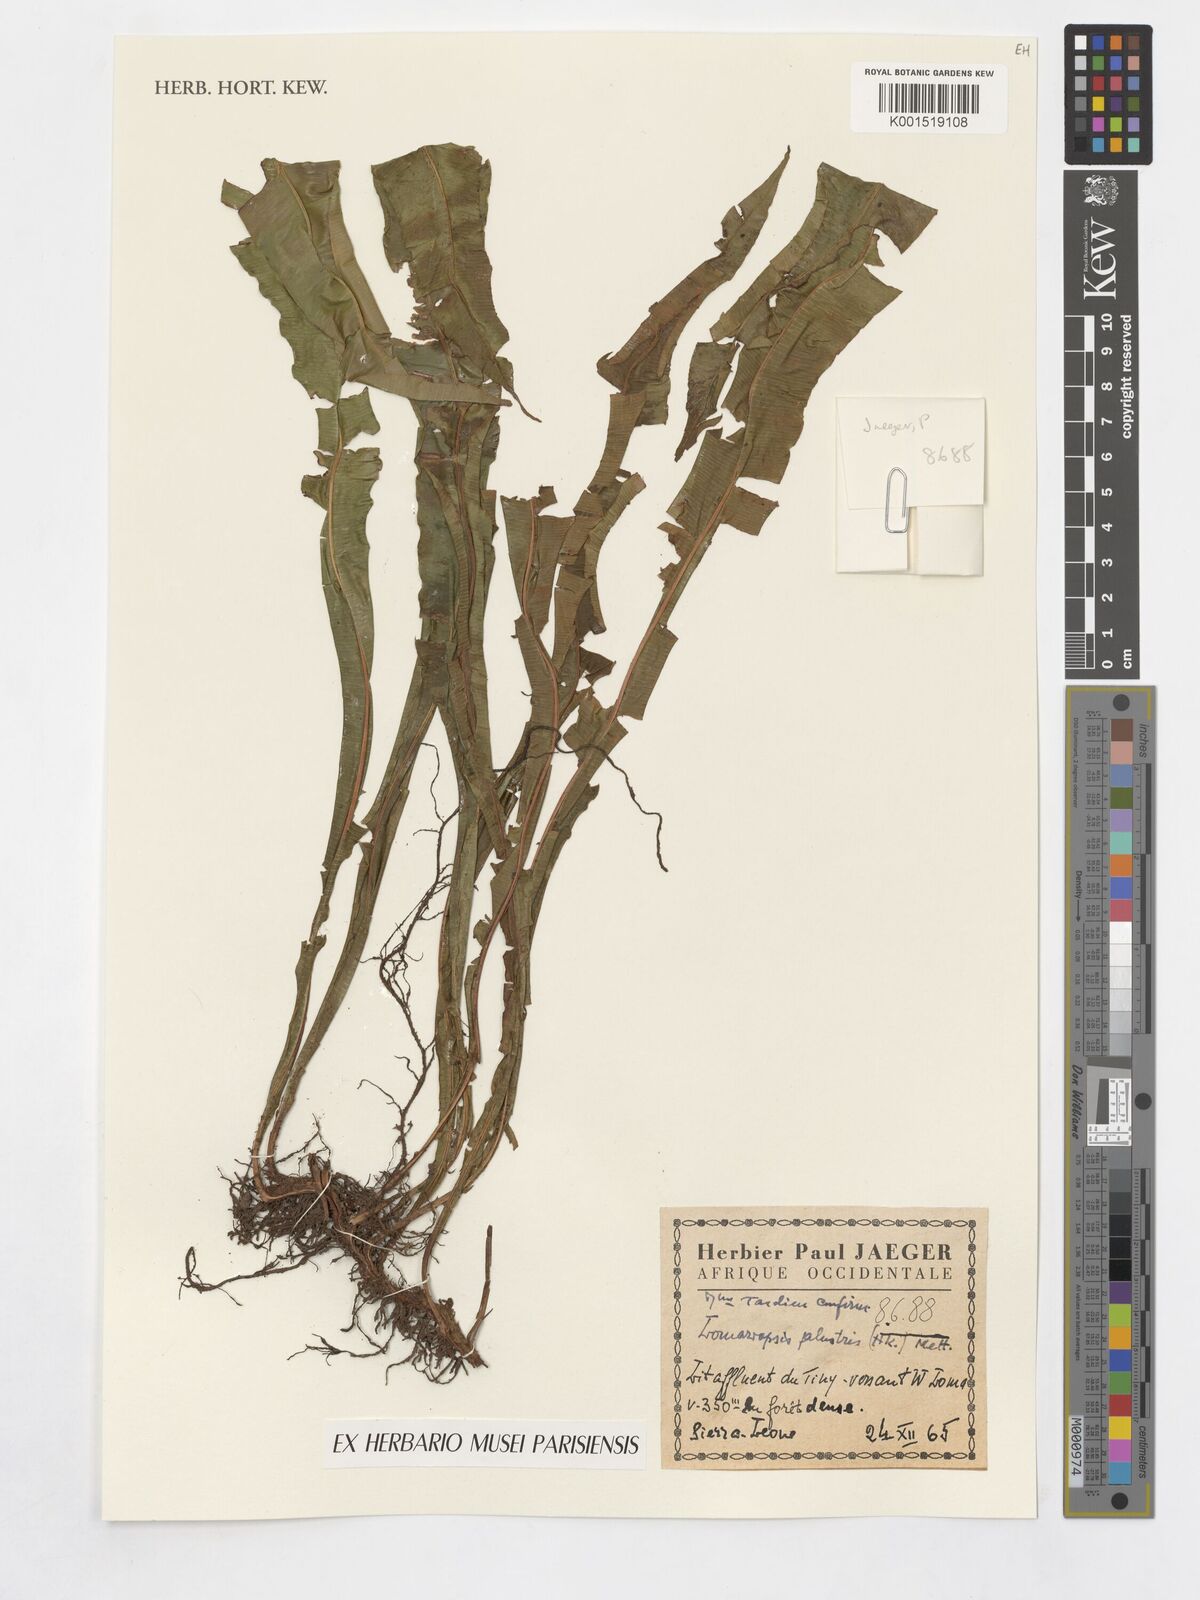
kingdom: Plantae
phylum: Tracheophyta
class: Polypodiopsida
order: Polypodiales
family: Lomariopsidaceae
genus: Lomariopsis
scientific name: Lomariopsis palustris
